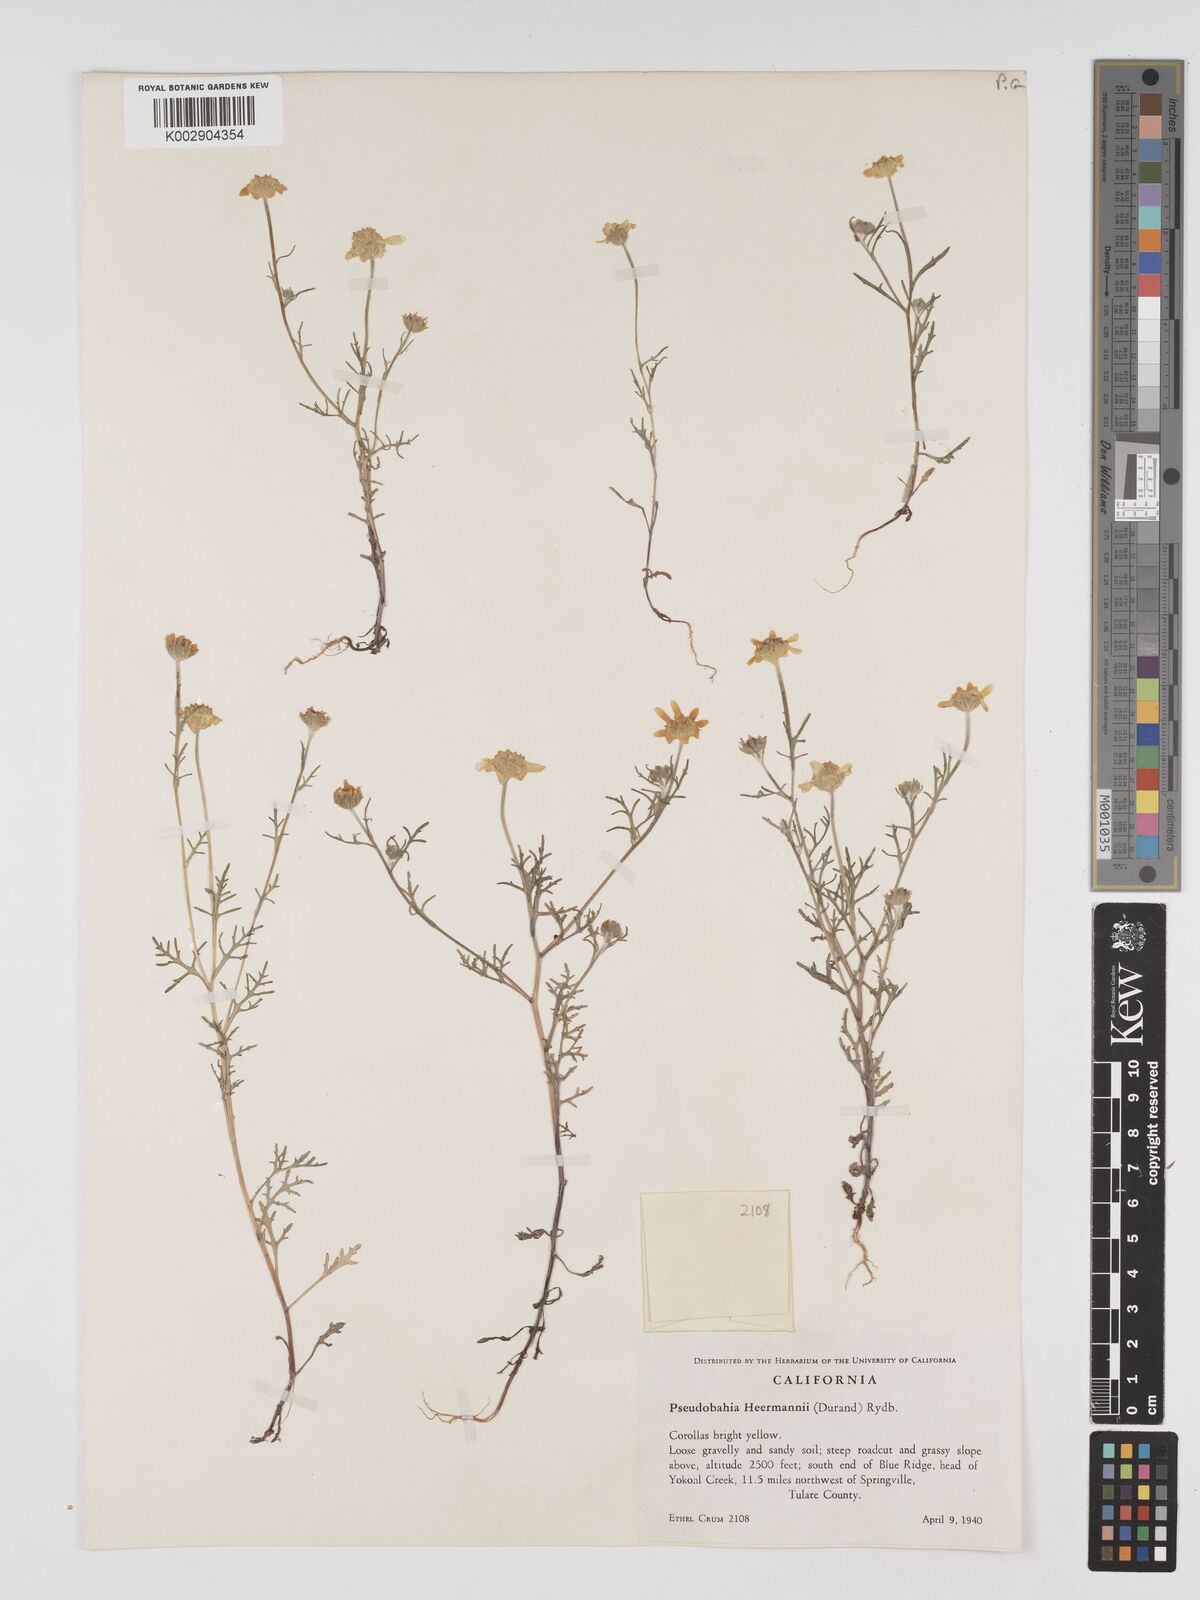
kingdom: Plantae
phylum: Tracheophyta
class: Magnoliopsida
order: Asterales
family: Asteraceae
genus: Eriophyllum
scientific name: Eriophyllum jepsonii
